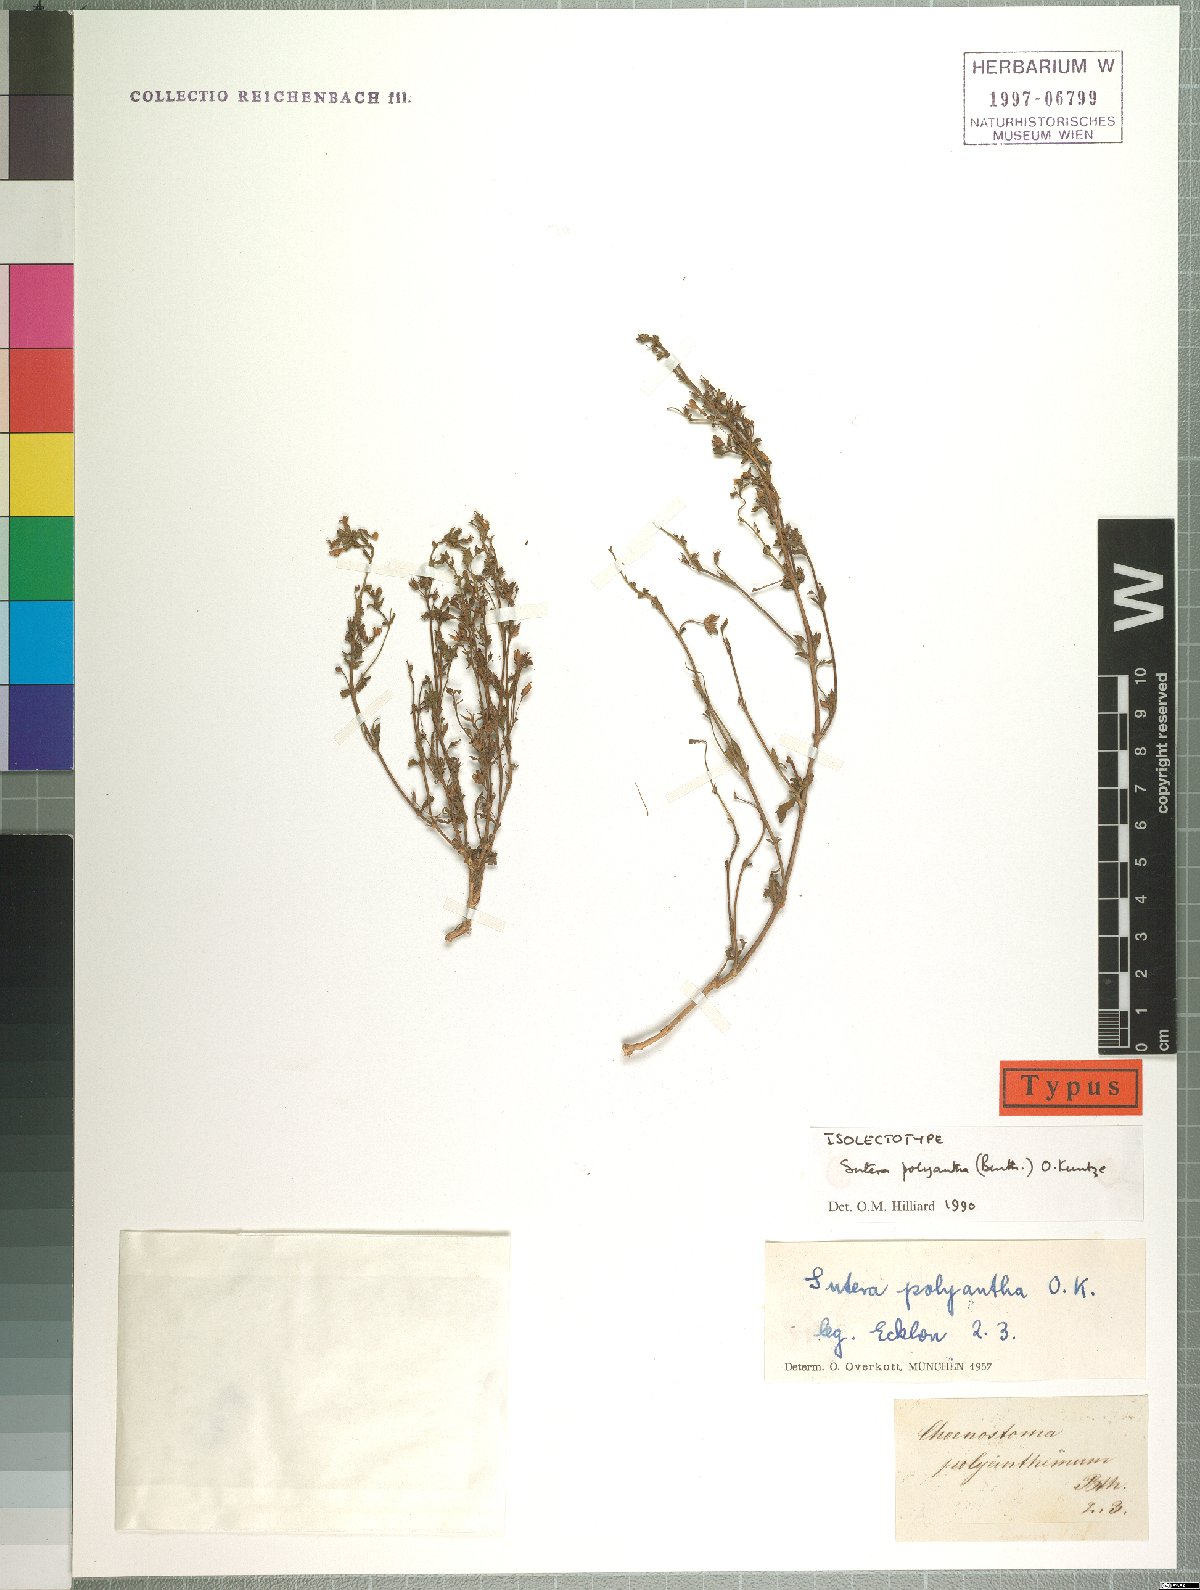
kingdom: Plantae
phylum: Tracheophyta
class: Magnoliopsida
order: Lamiales
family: Scrophulariaceae
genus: Chaenostoma
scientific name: Chaenostoma polyanthum
